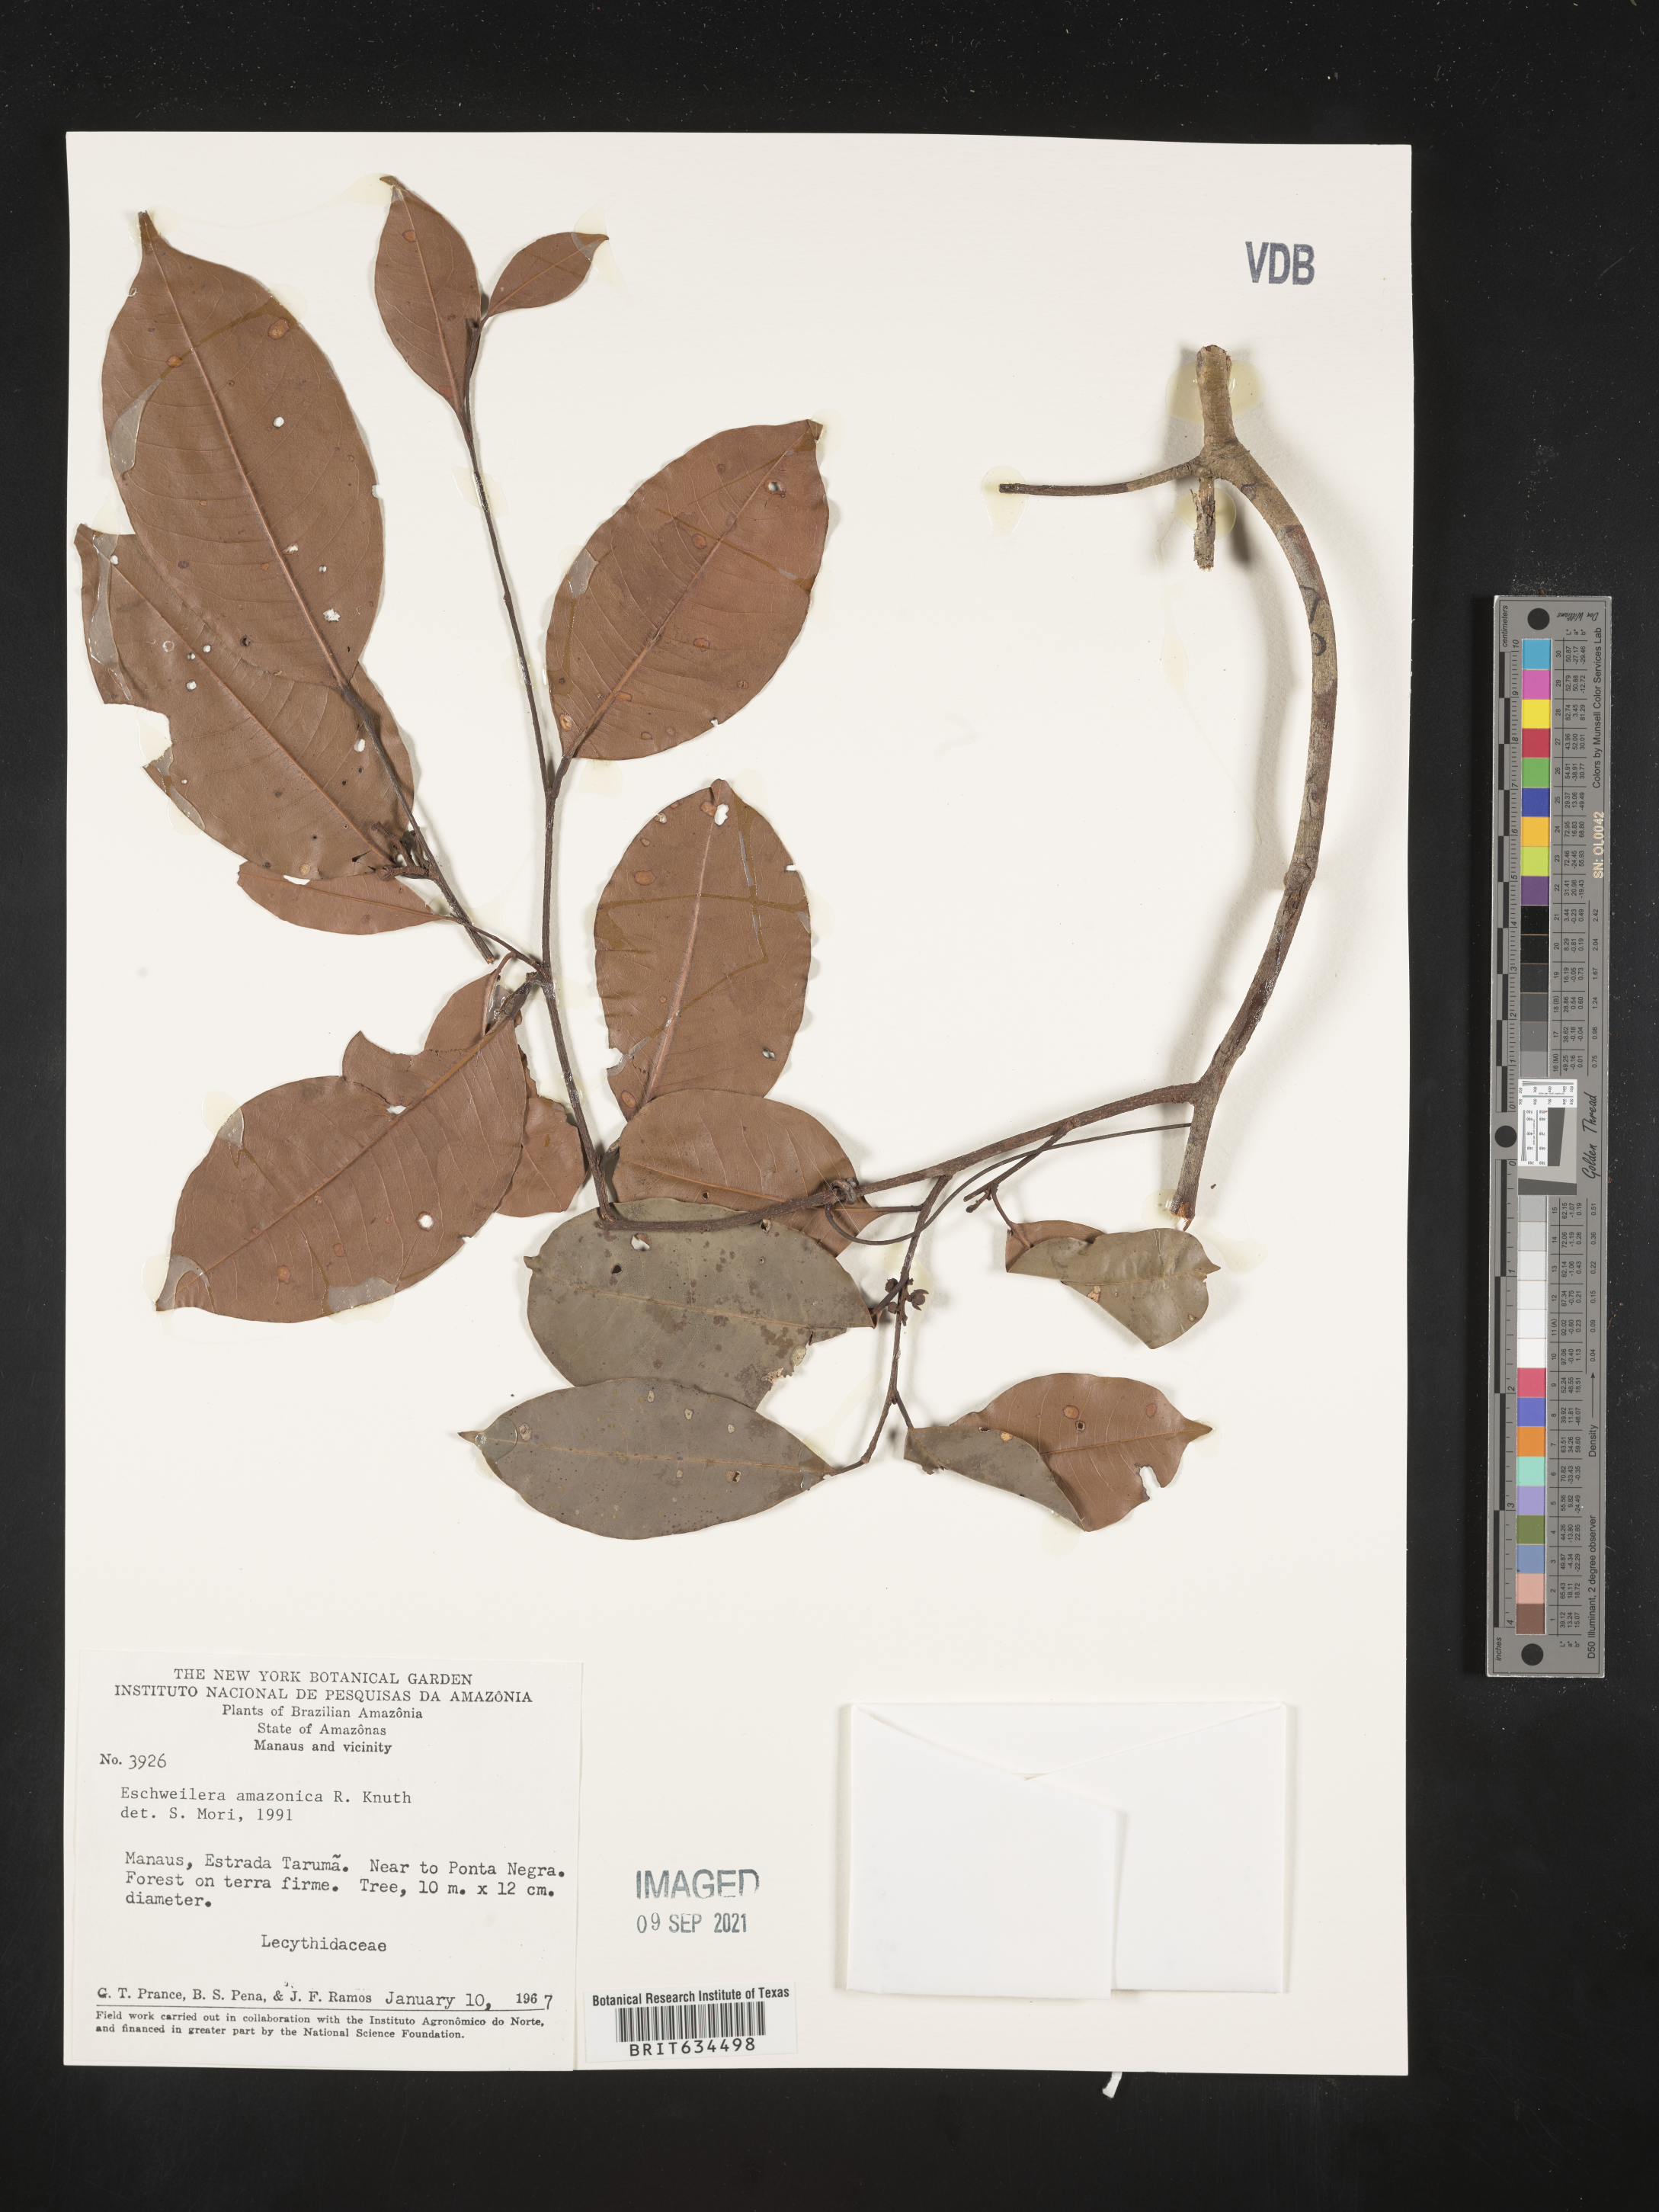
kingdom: Plantae
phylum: Tracheophyta
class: Magnoliopsida
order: Ericales
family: Lecythidaceae
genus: Eschweilera
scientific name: Eschweilera
